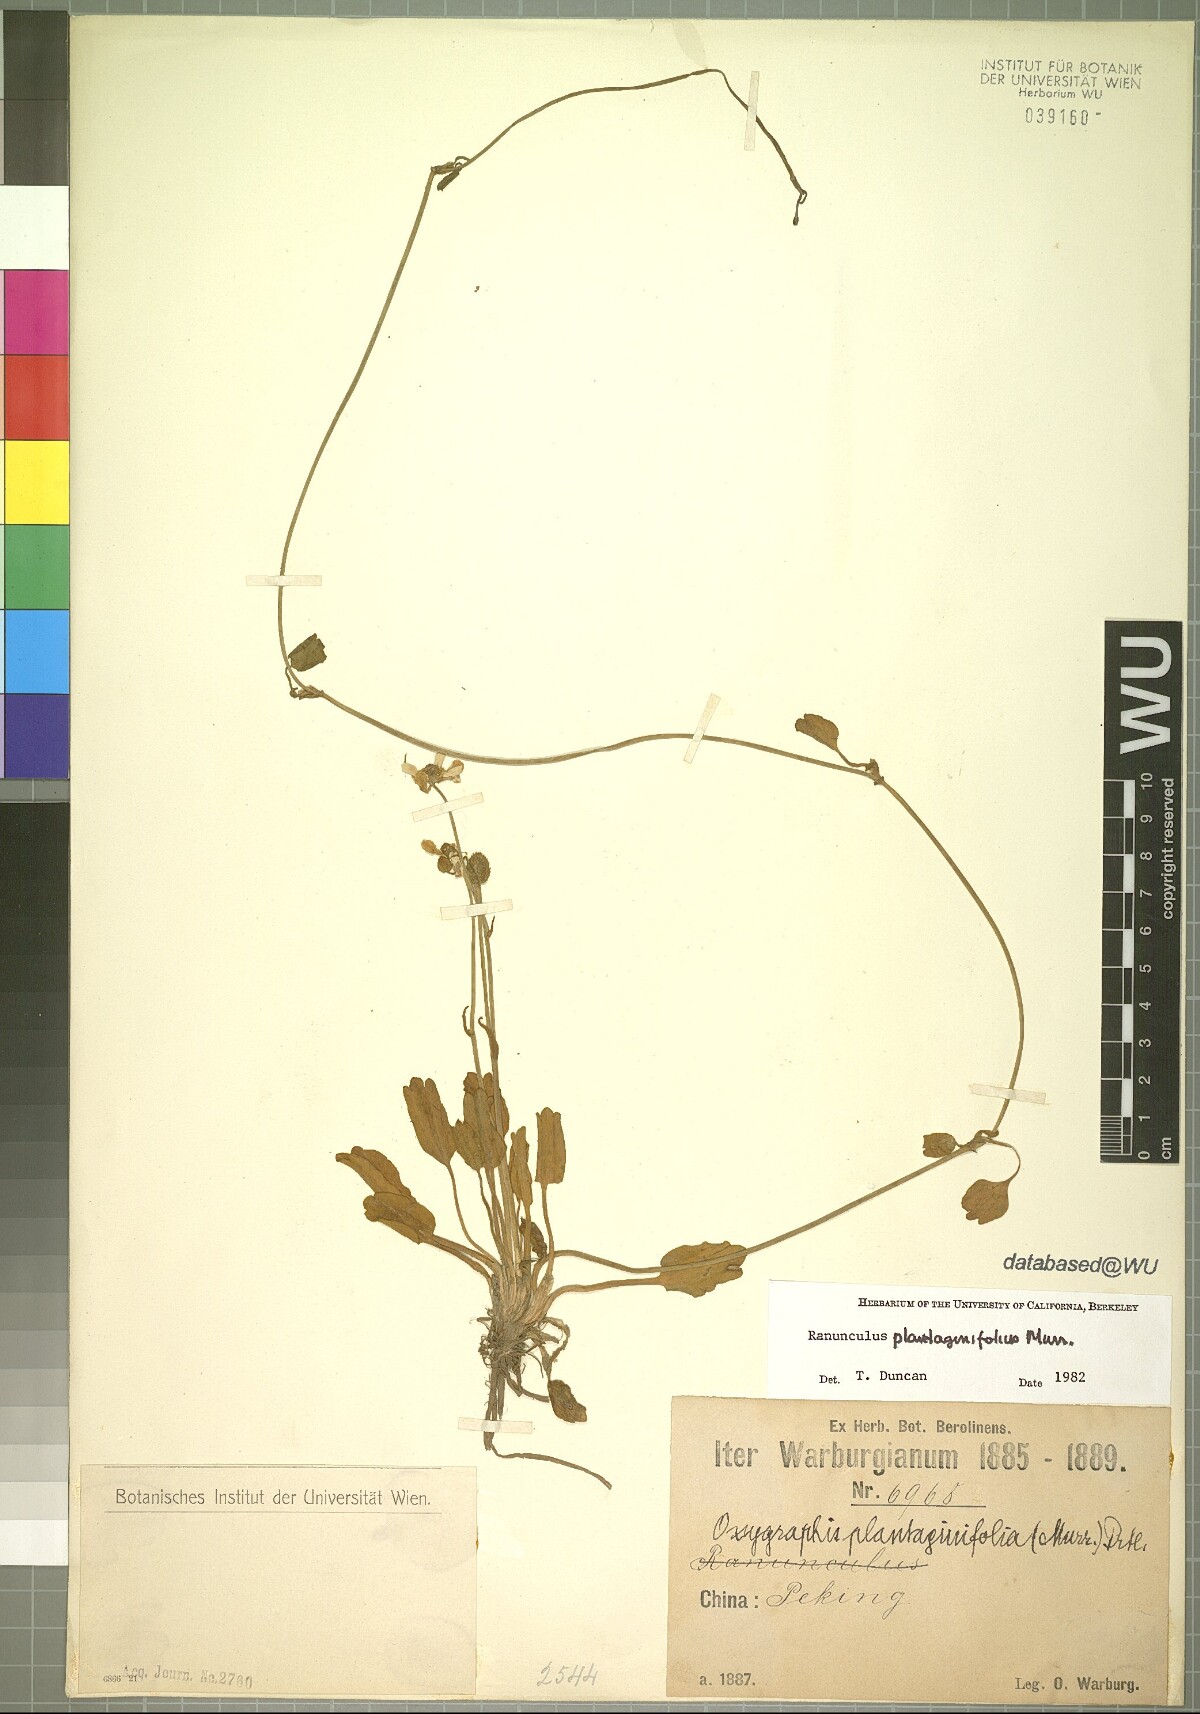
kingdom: Plantae
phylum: Tracheophyta
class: Magnoliopsida
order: Ranunculales
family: Ranunculaceae
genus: Halerpestes
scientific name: Halerpestes ruthenica
